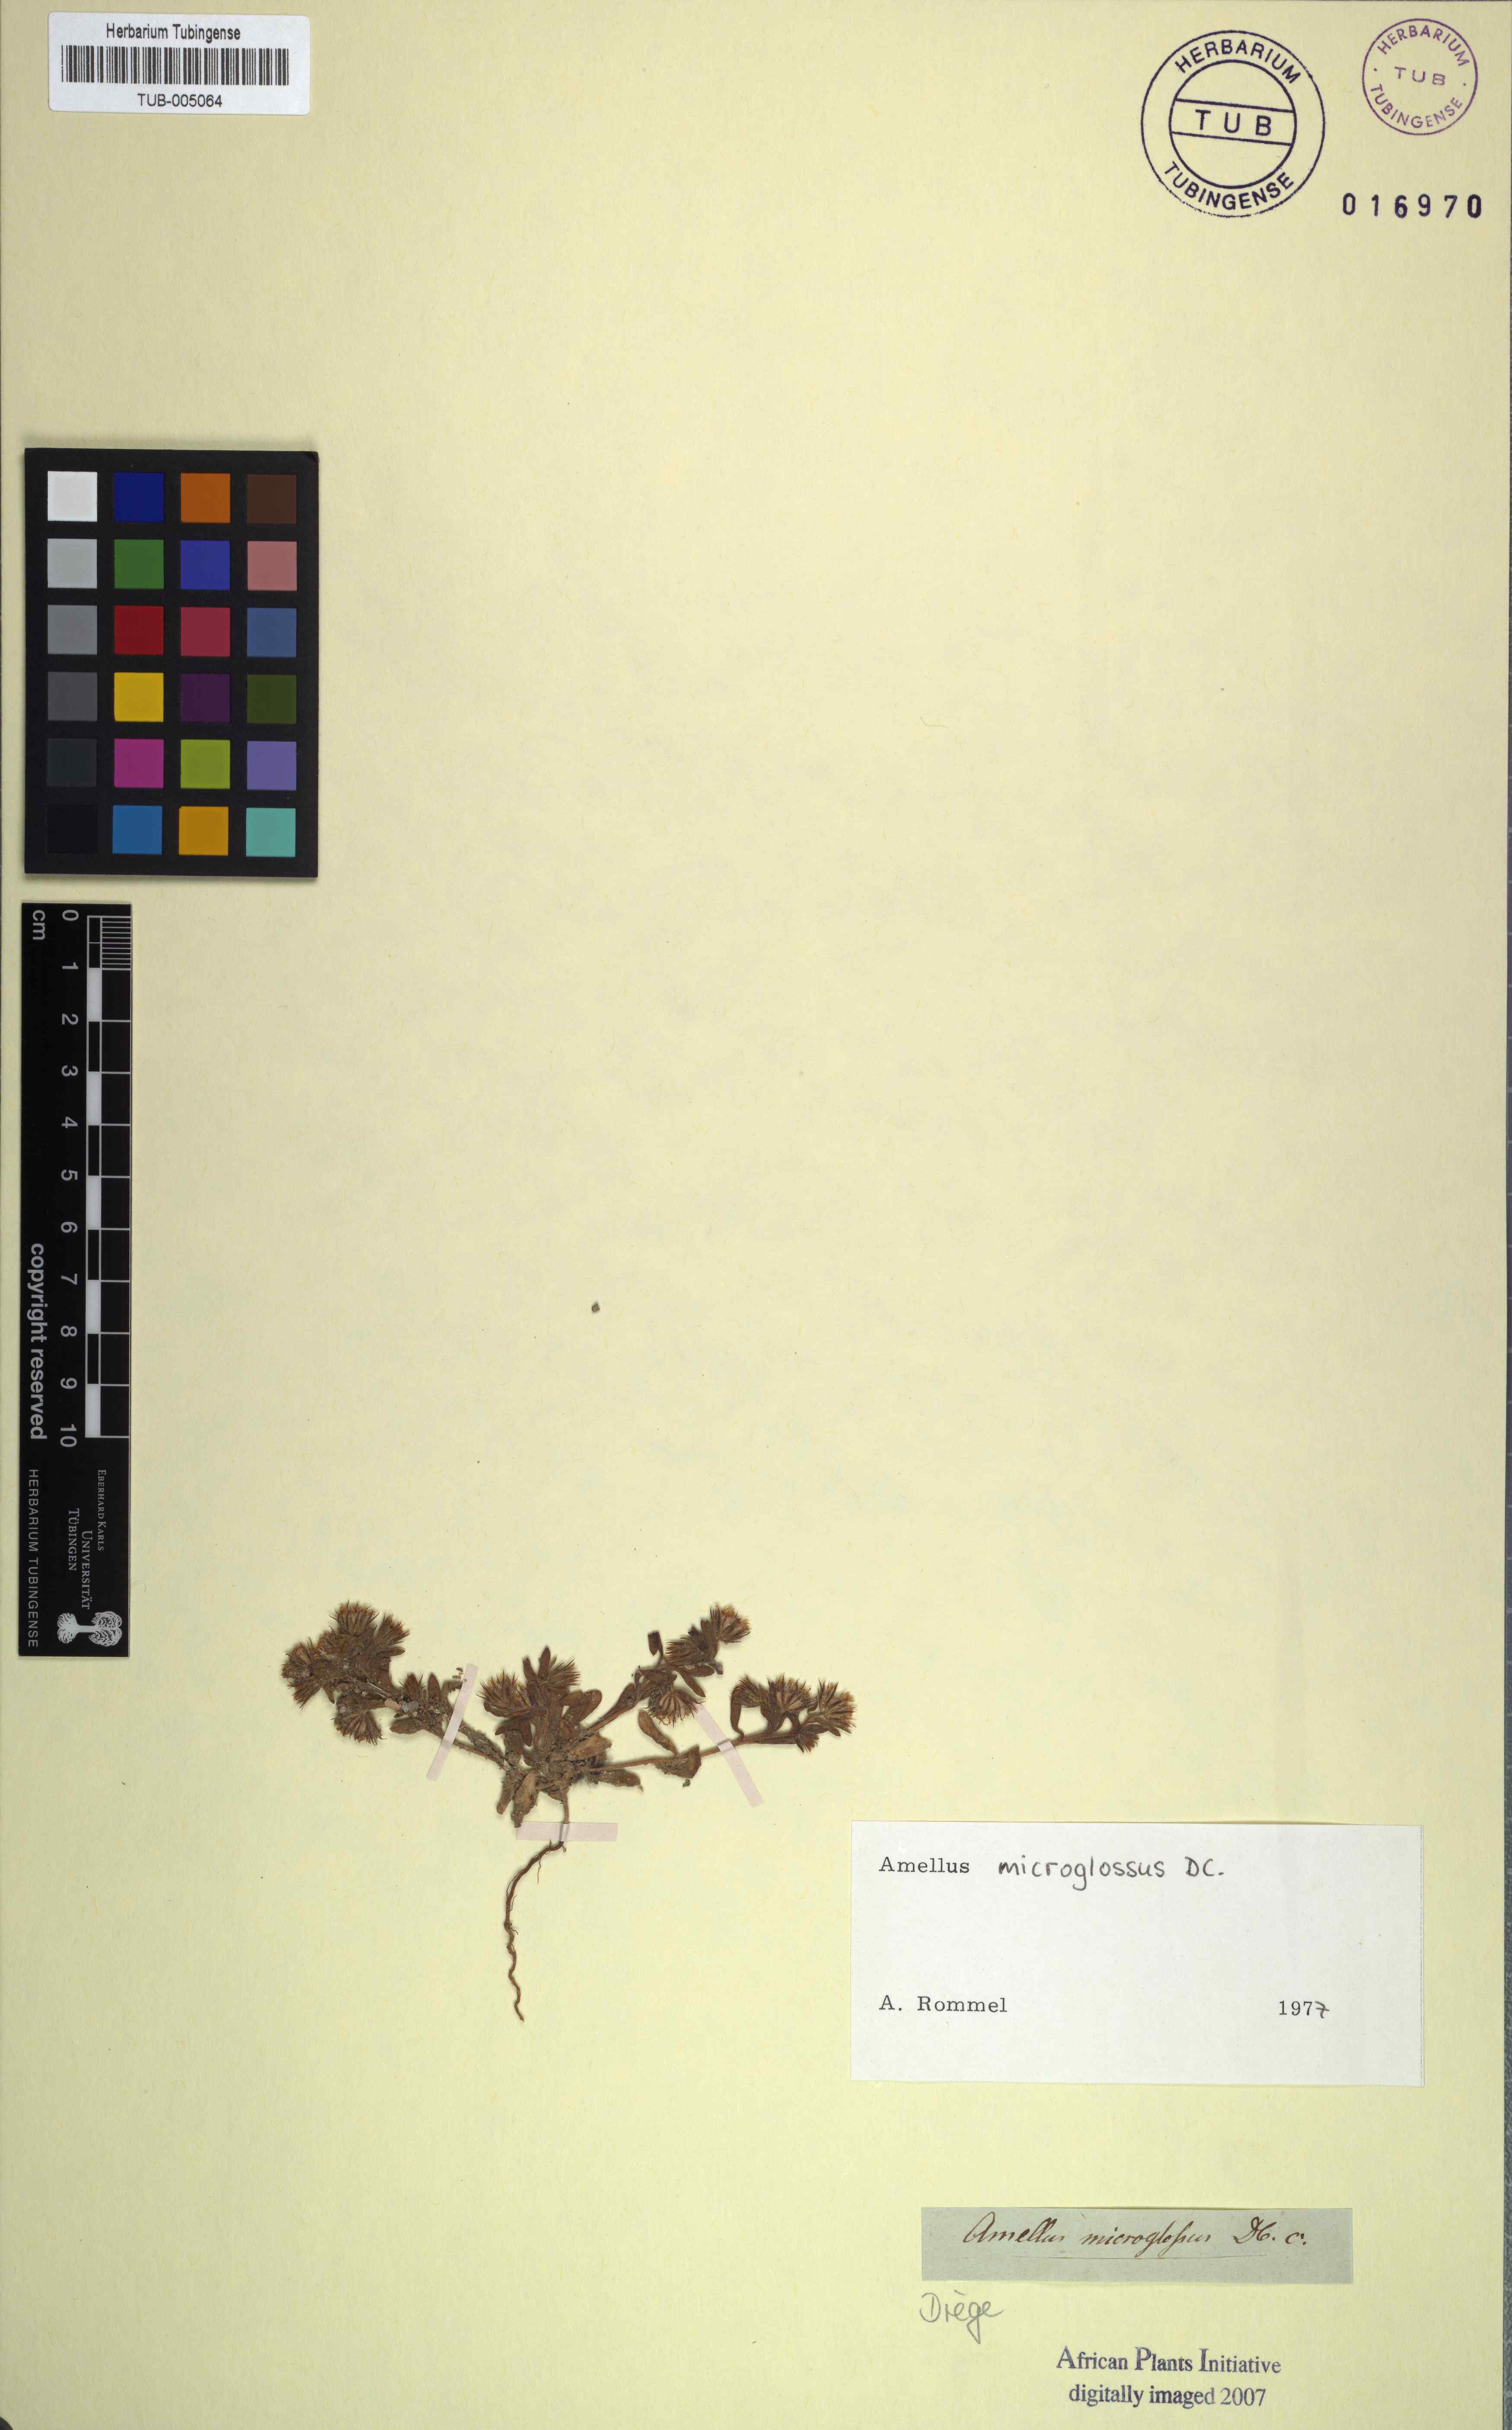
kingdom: Plantae
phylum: Tracheophyta
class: Magnoliopsida
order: Asterales
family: Asteraceae
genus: Amellus
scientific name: Amellus microglossus
